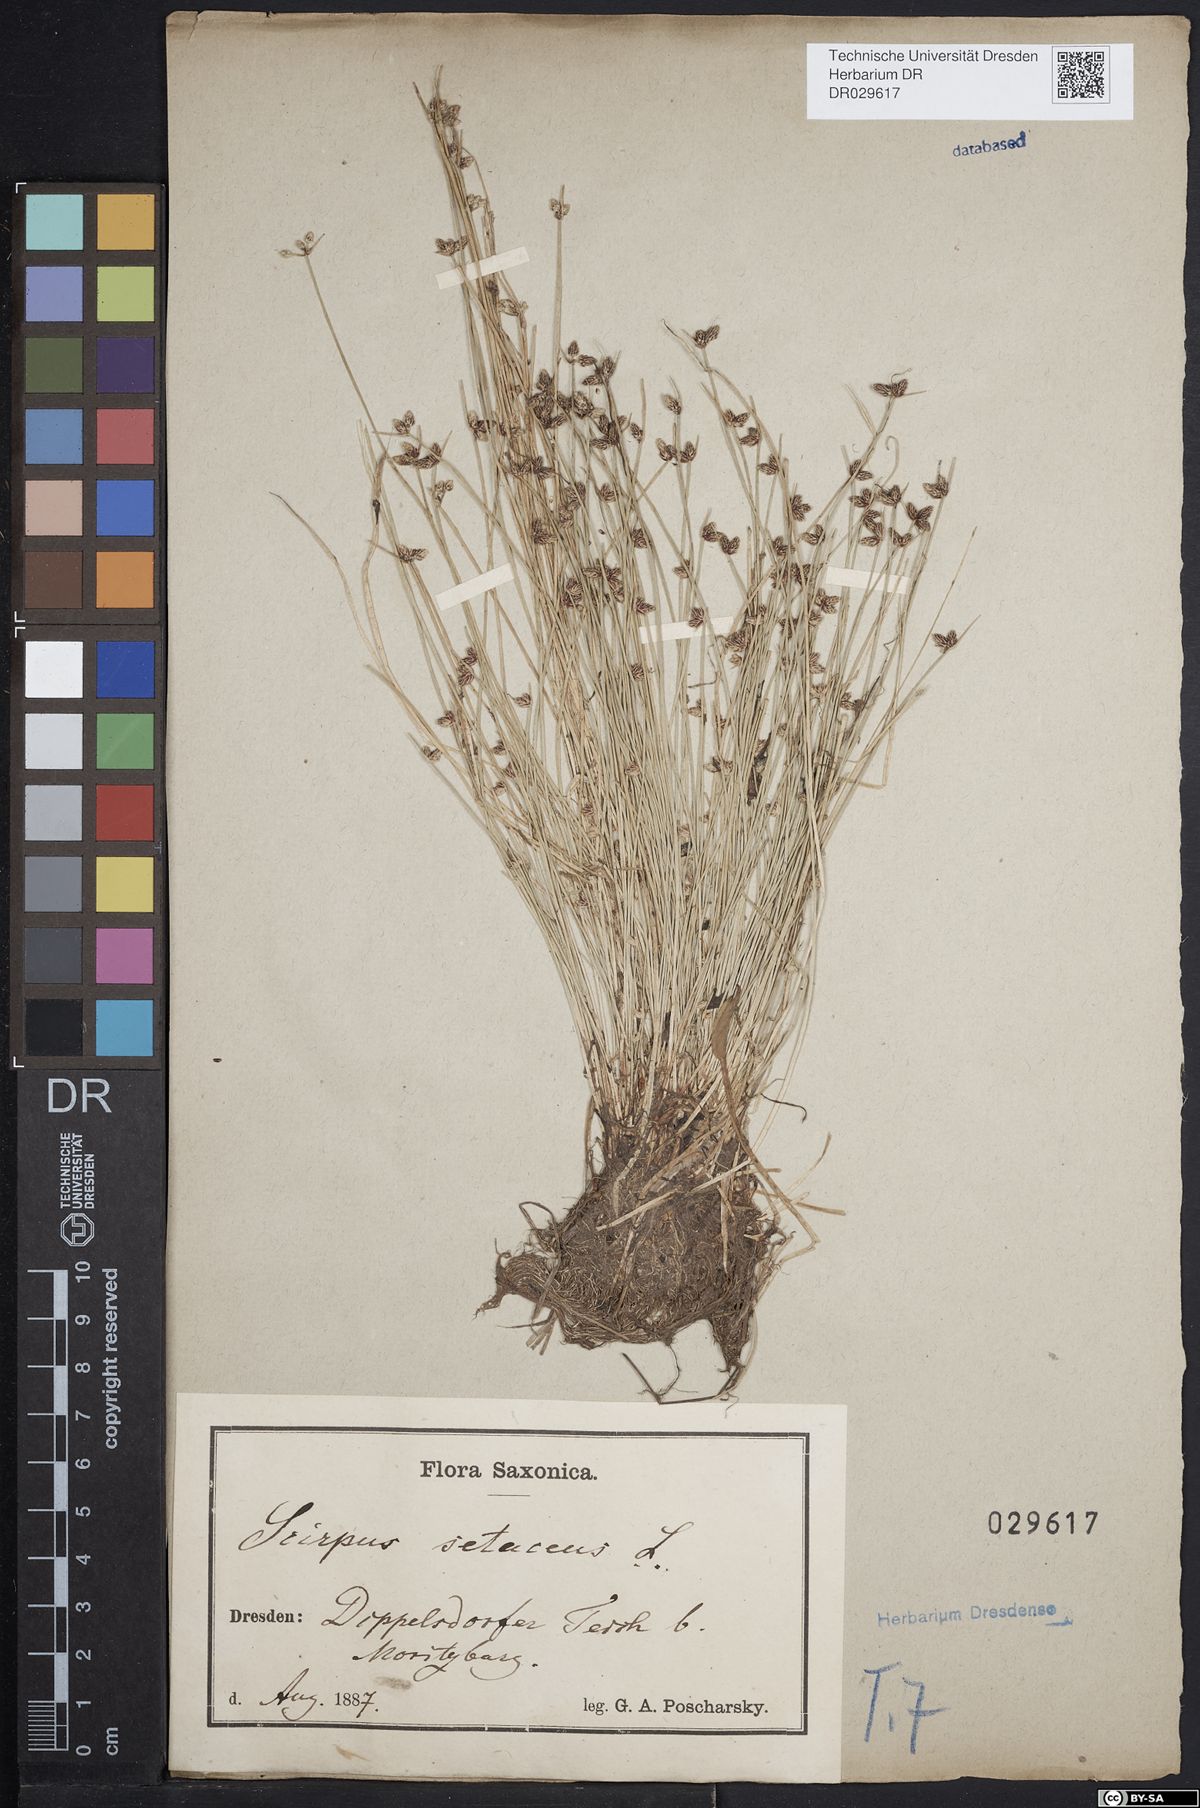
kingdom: Plantae
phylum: Tracheophyta
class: Liliopsida
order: Poales
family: Cyperaceae
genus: Isolepis
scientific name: Isolepis setacea
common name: Bristle club-rush
